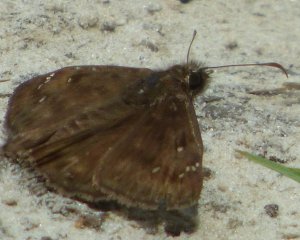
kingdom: Animalia
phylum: Arthropoda
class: Insecta
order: Lepidoptera
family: Hesperiidae
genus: Gesta
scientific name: Gesta
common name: Horace's Duskywing
